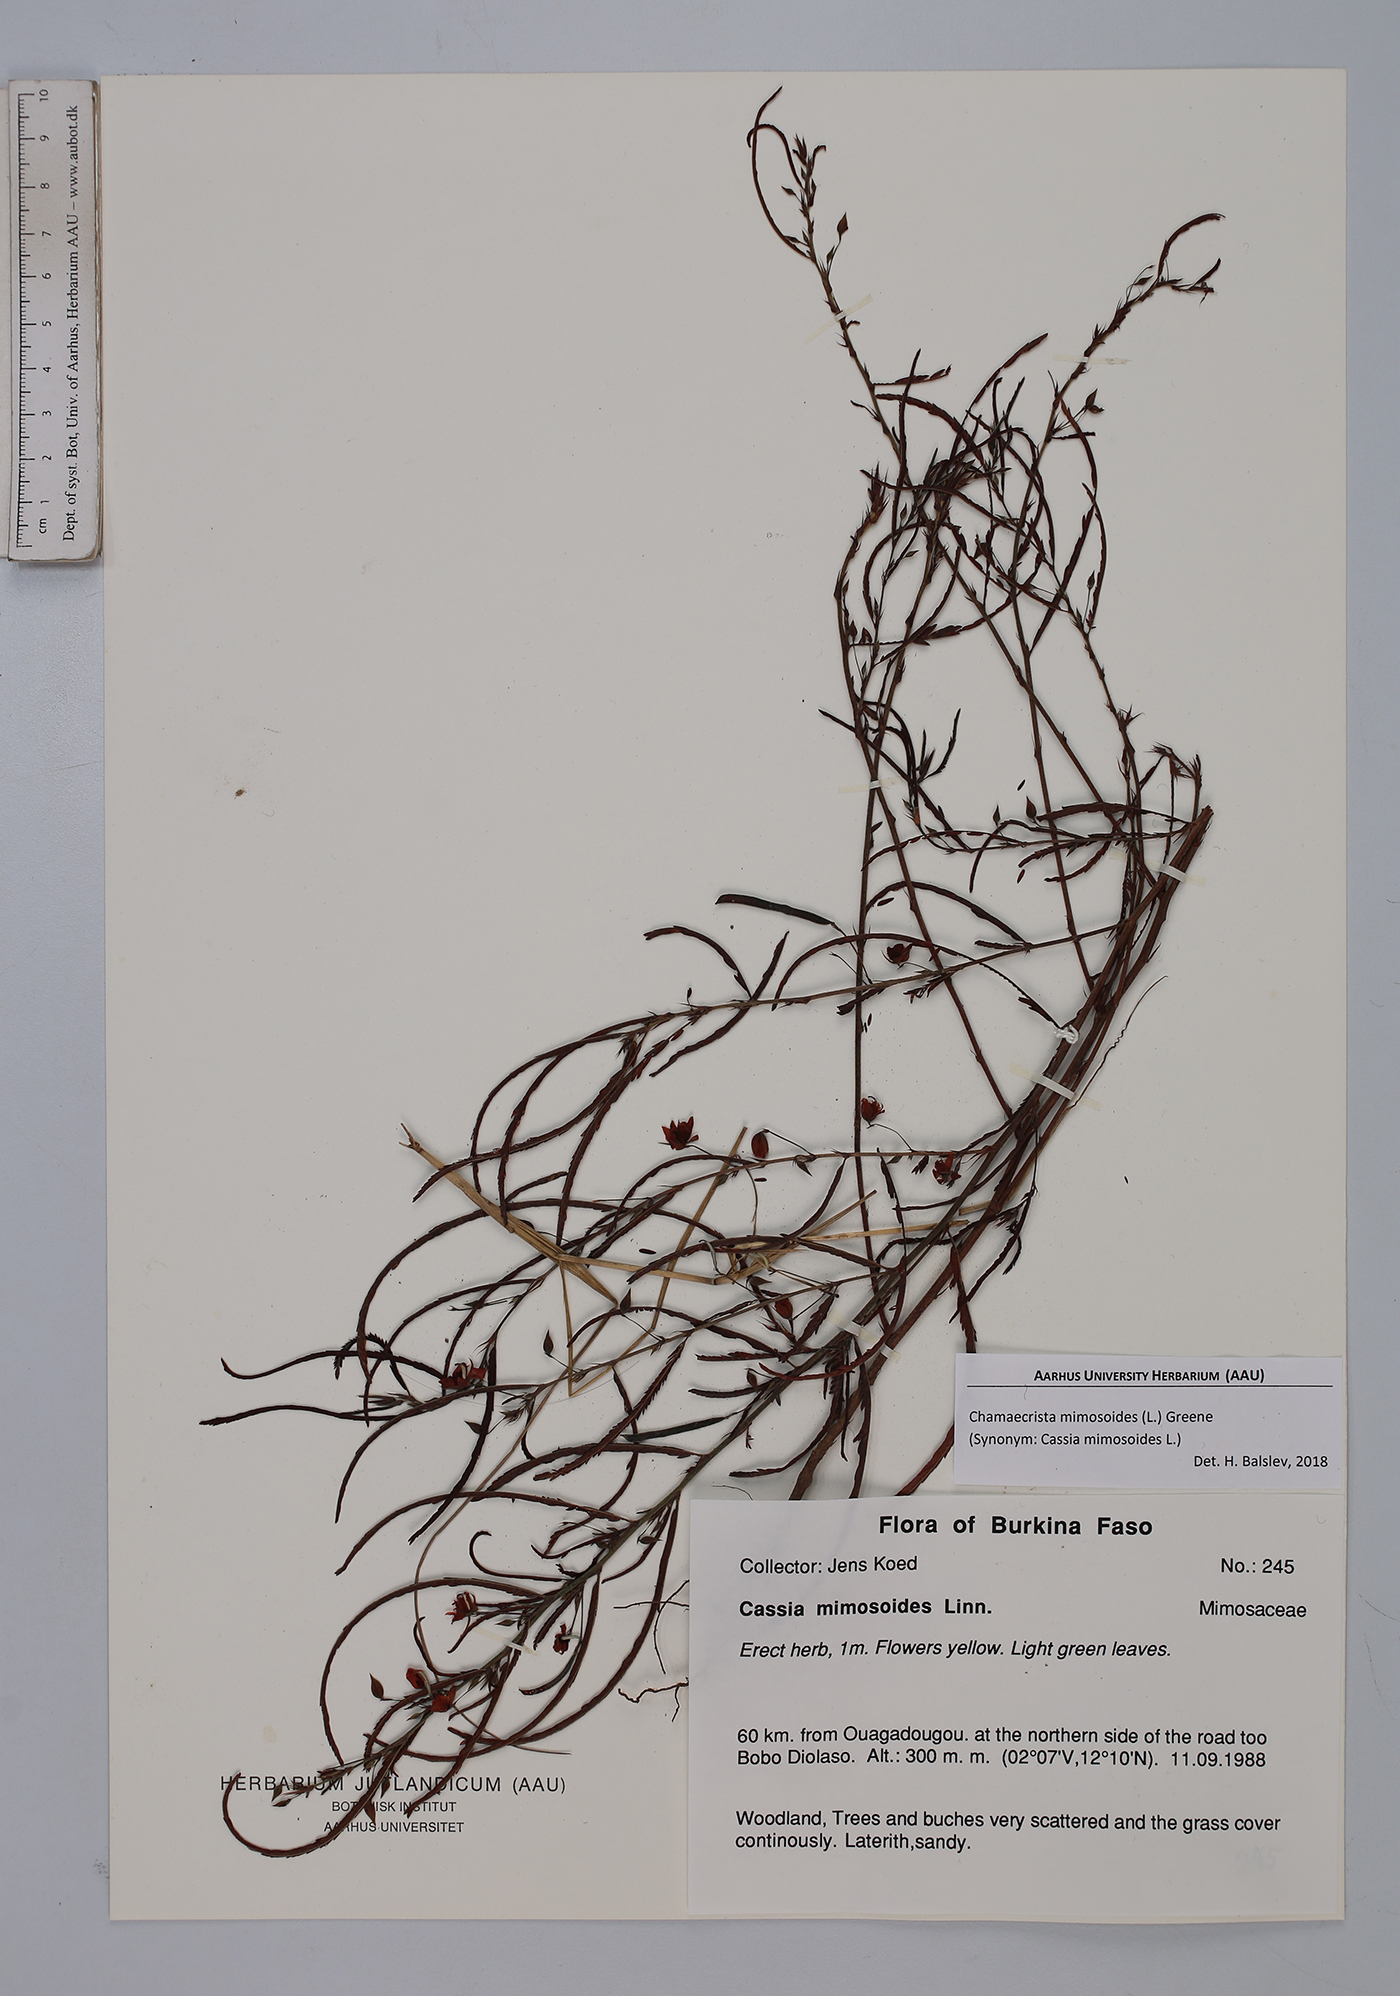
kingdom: Plantae
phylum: Tracheophyta
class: Magnoliopsida
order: Fabales
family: Fabaceae
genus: Chamaecrista
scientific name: Chamaecrista mimosoides
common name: Fish-bone cassia
